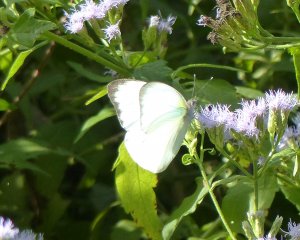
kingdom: Animalia
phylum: Arthropoda
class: Insecta
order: Lepidoptera
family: Pieridae
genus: Glutophrissa
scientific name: Glutophrissa drusilla
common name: Florida White
